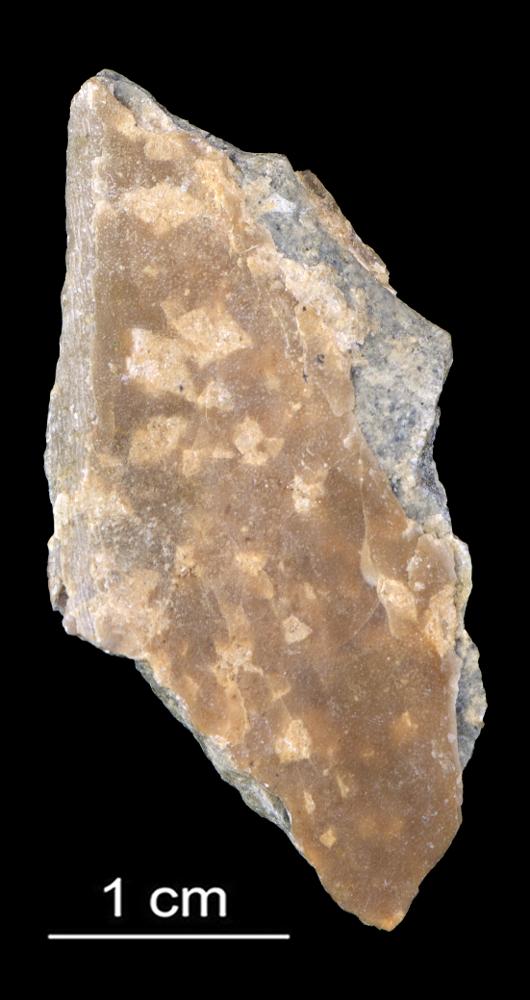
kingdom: Animalia
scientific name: Animalia
